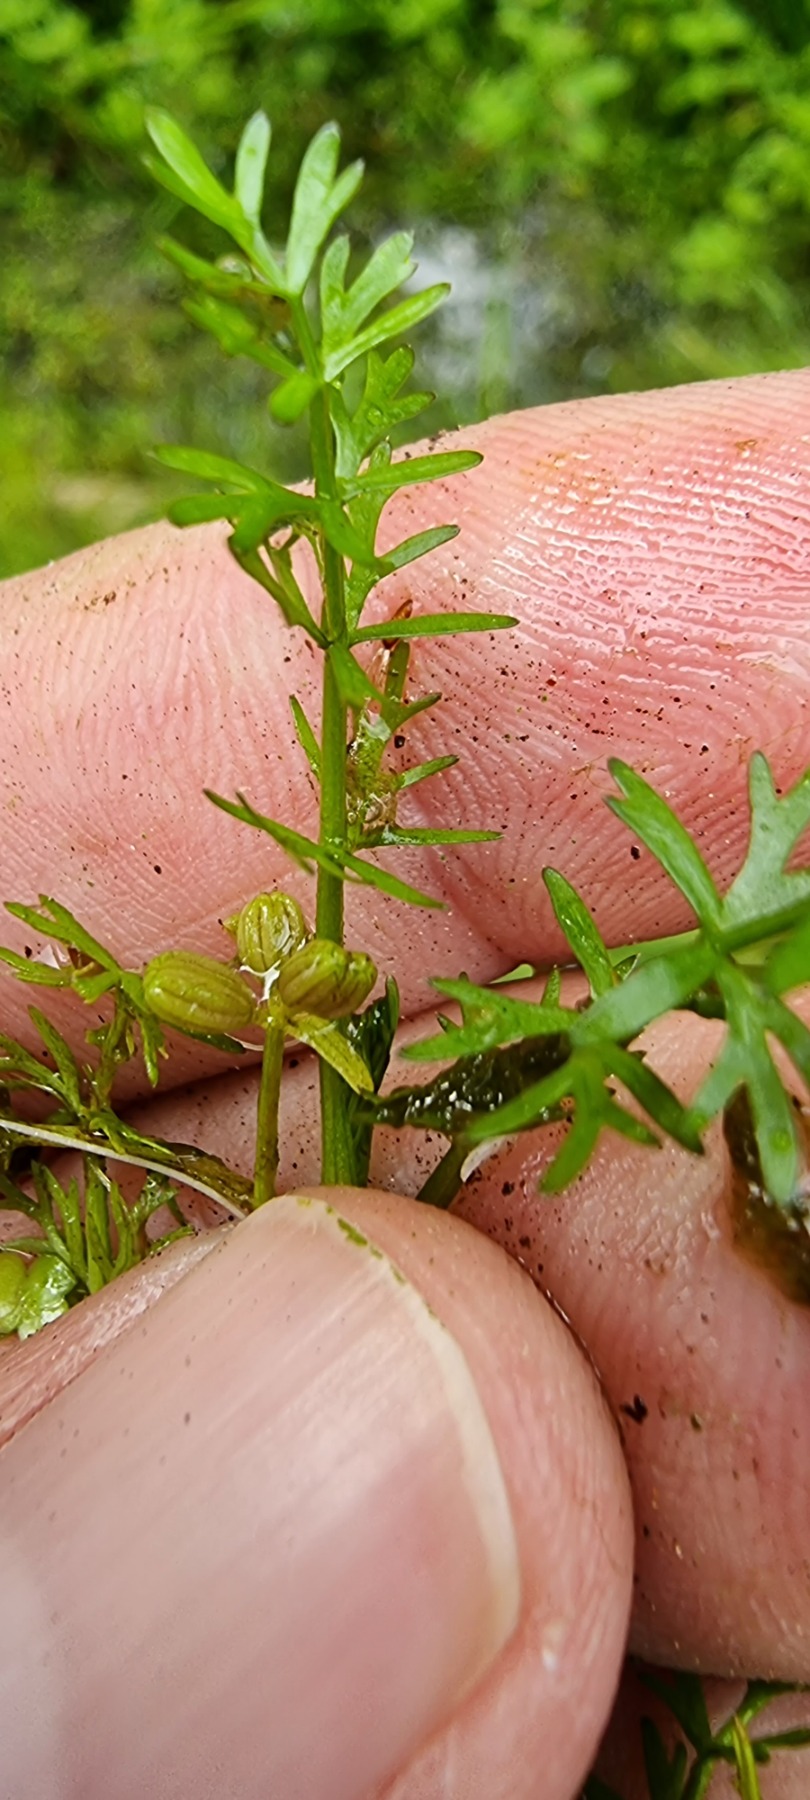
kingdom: Plantae
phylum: Tracheophyta
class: Magnoliopsida
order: Apiales
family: Apiaceae
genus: Helosciadium
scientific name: Helosciadium inundatum
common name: Svømmende sumpskærm
